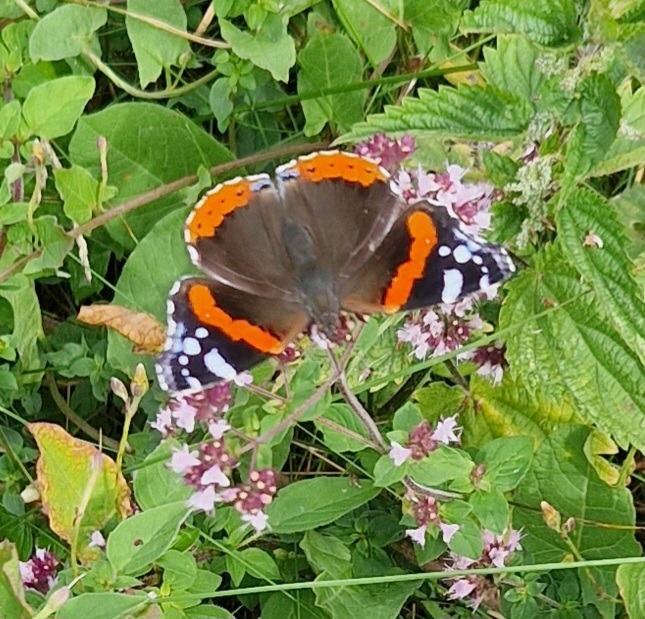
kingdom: Animalia
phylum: Arthropoda
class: Insecta
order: Lepidoptera
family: Nymphalidae
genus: Vanessa
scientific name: Vanessa atalanta
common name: Admiral
